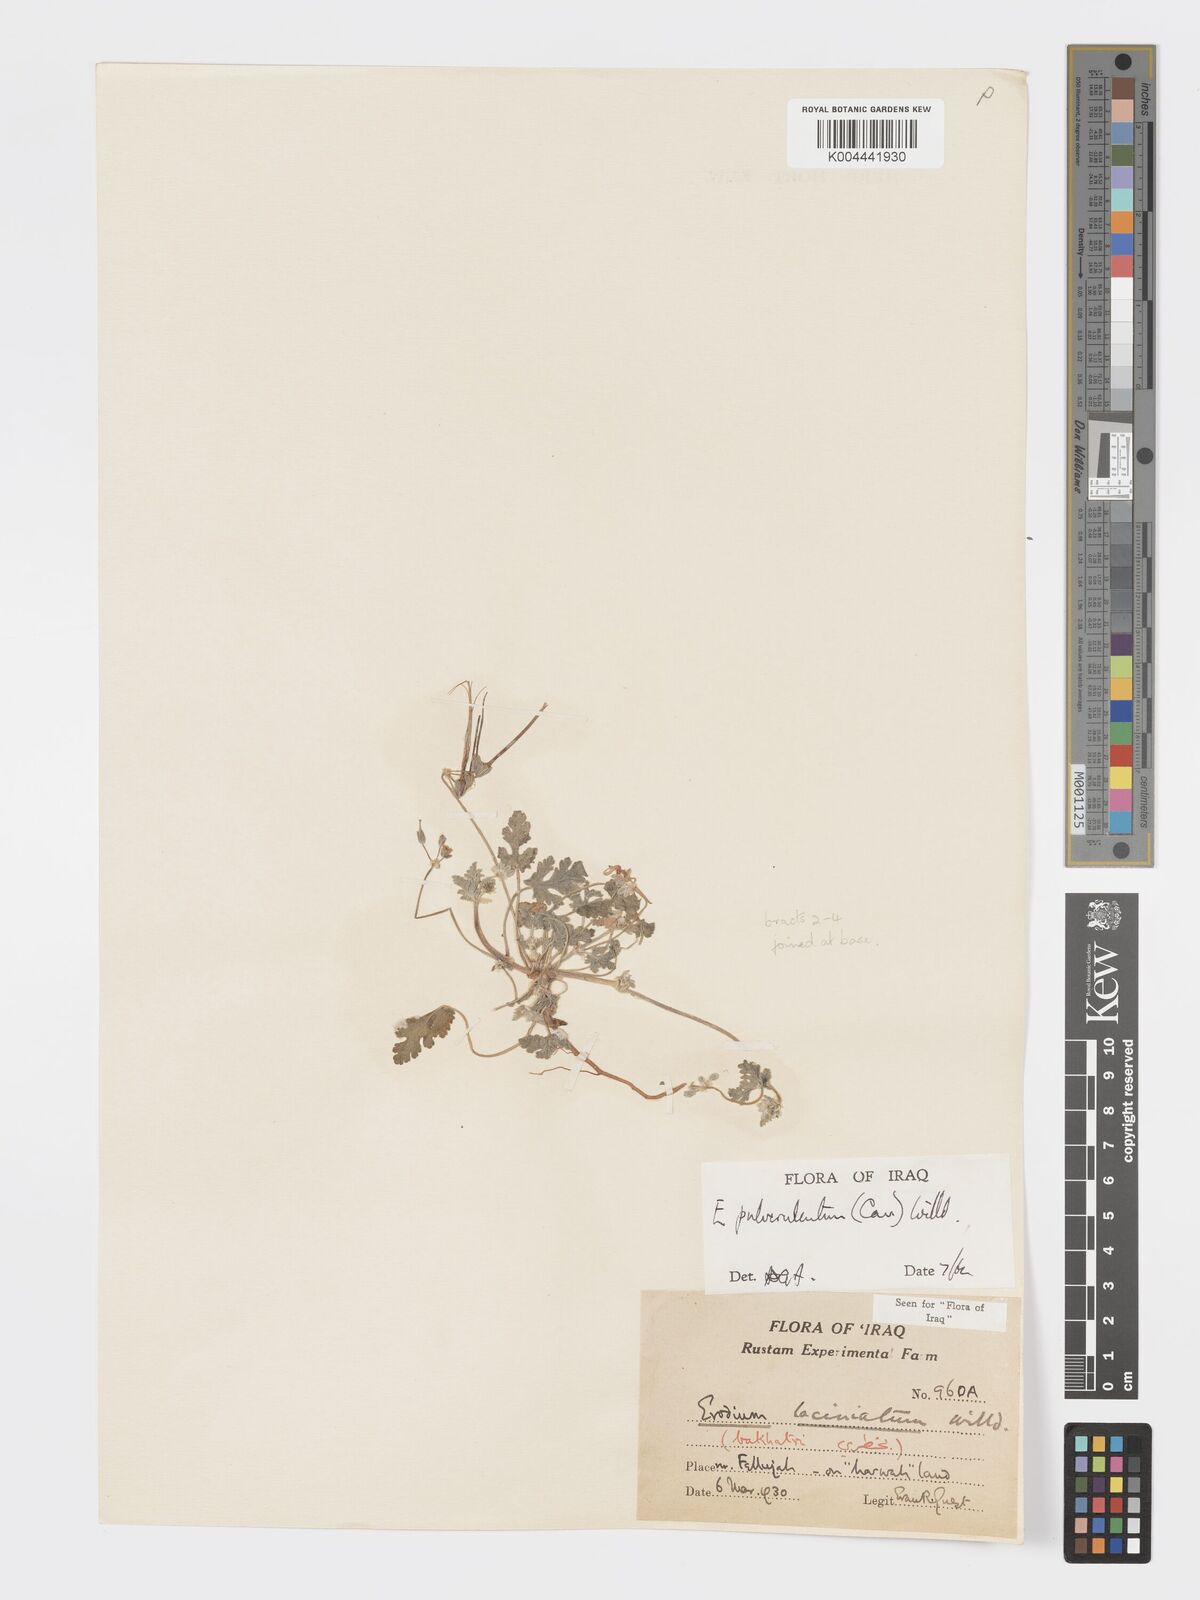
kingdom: Plantae
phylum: Tracheophyta
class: Magnoliopsida
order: Geraniales
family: Geraniaceae
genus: Erodium
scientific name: Erodium laciniatum
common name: Cutleaf stork's bill
